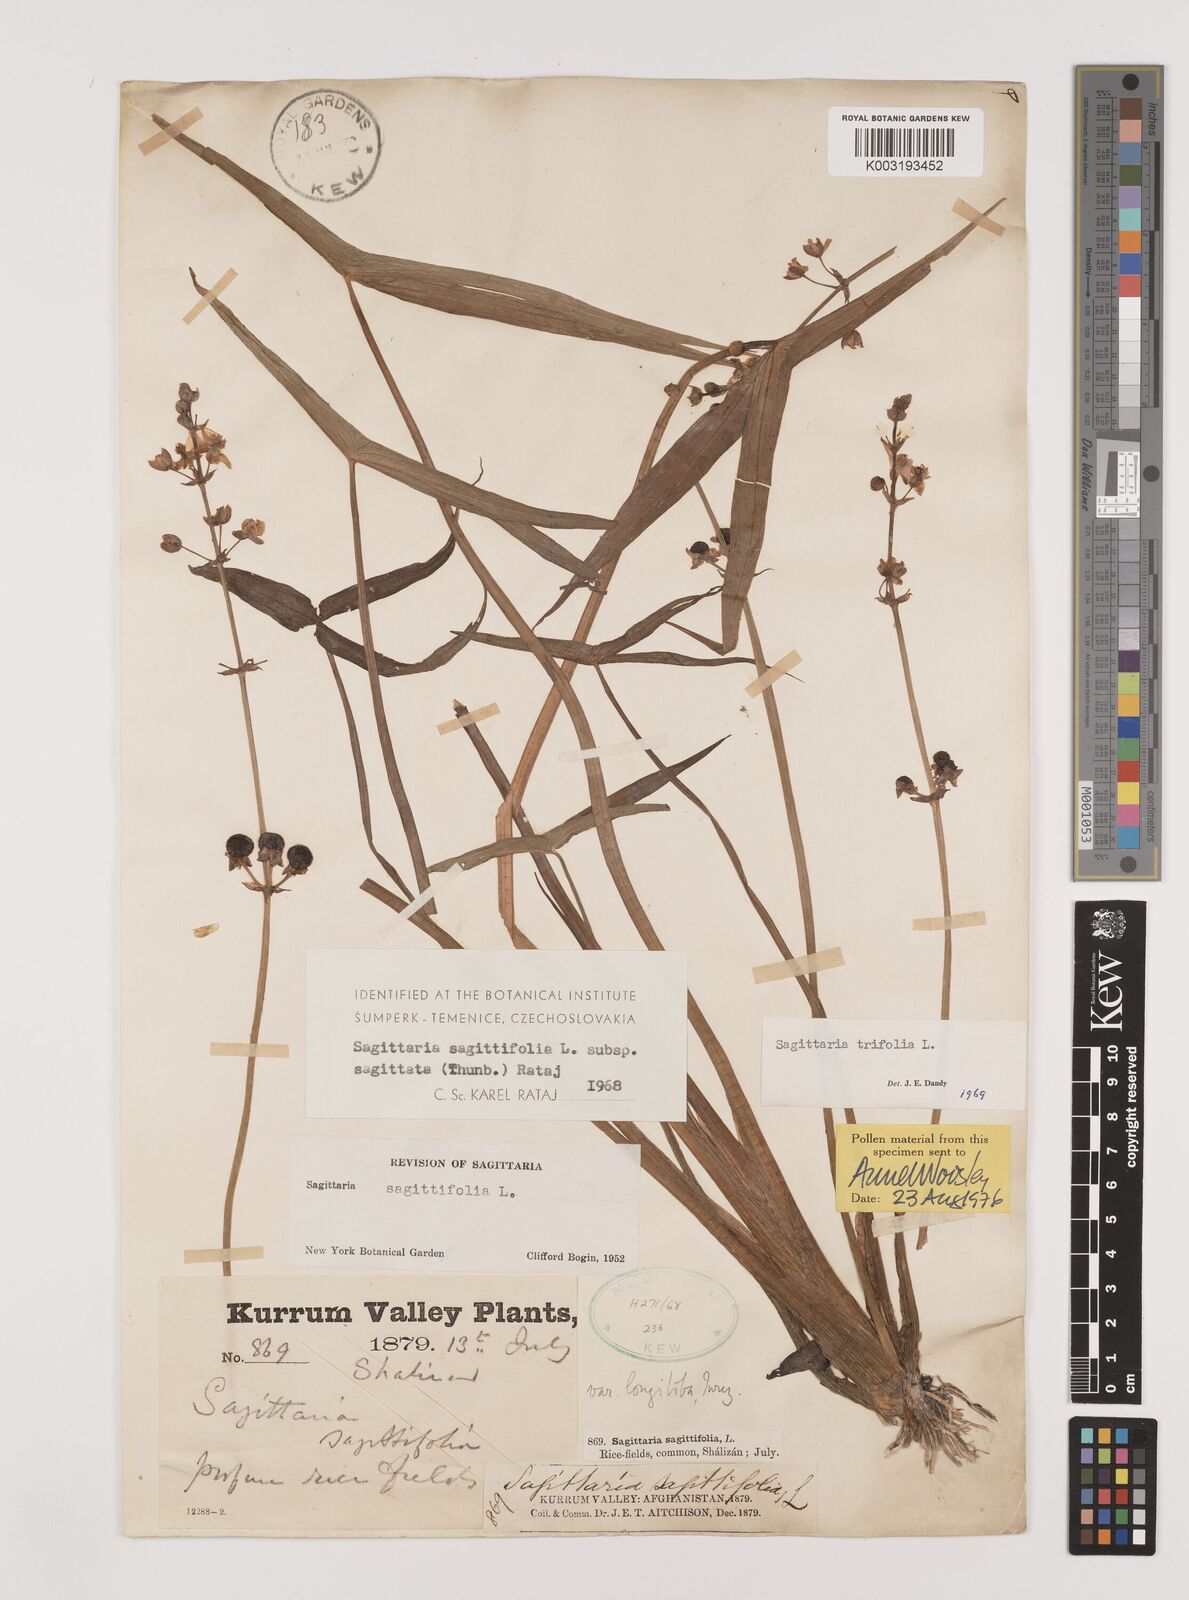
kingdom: Plantae
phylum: Tracheophyta
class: Liliopsida
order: Alismatales
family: Alismataceae
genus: Sagittaria
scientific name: Sagittaria trifolia
